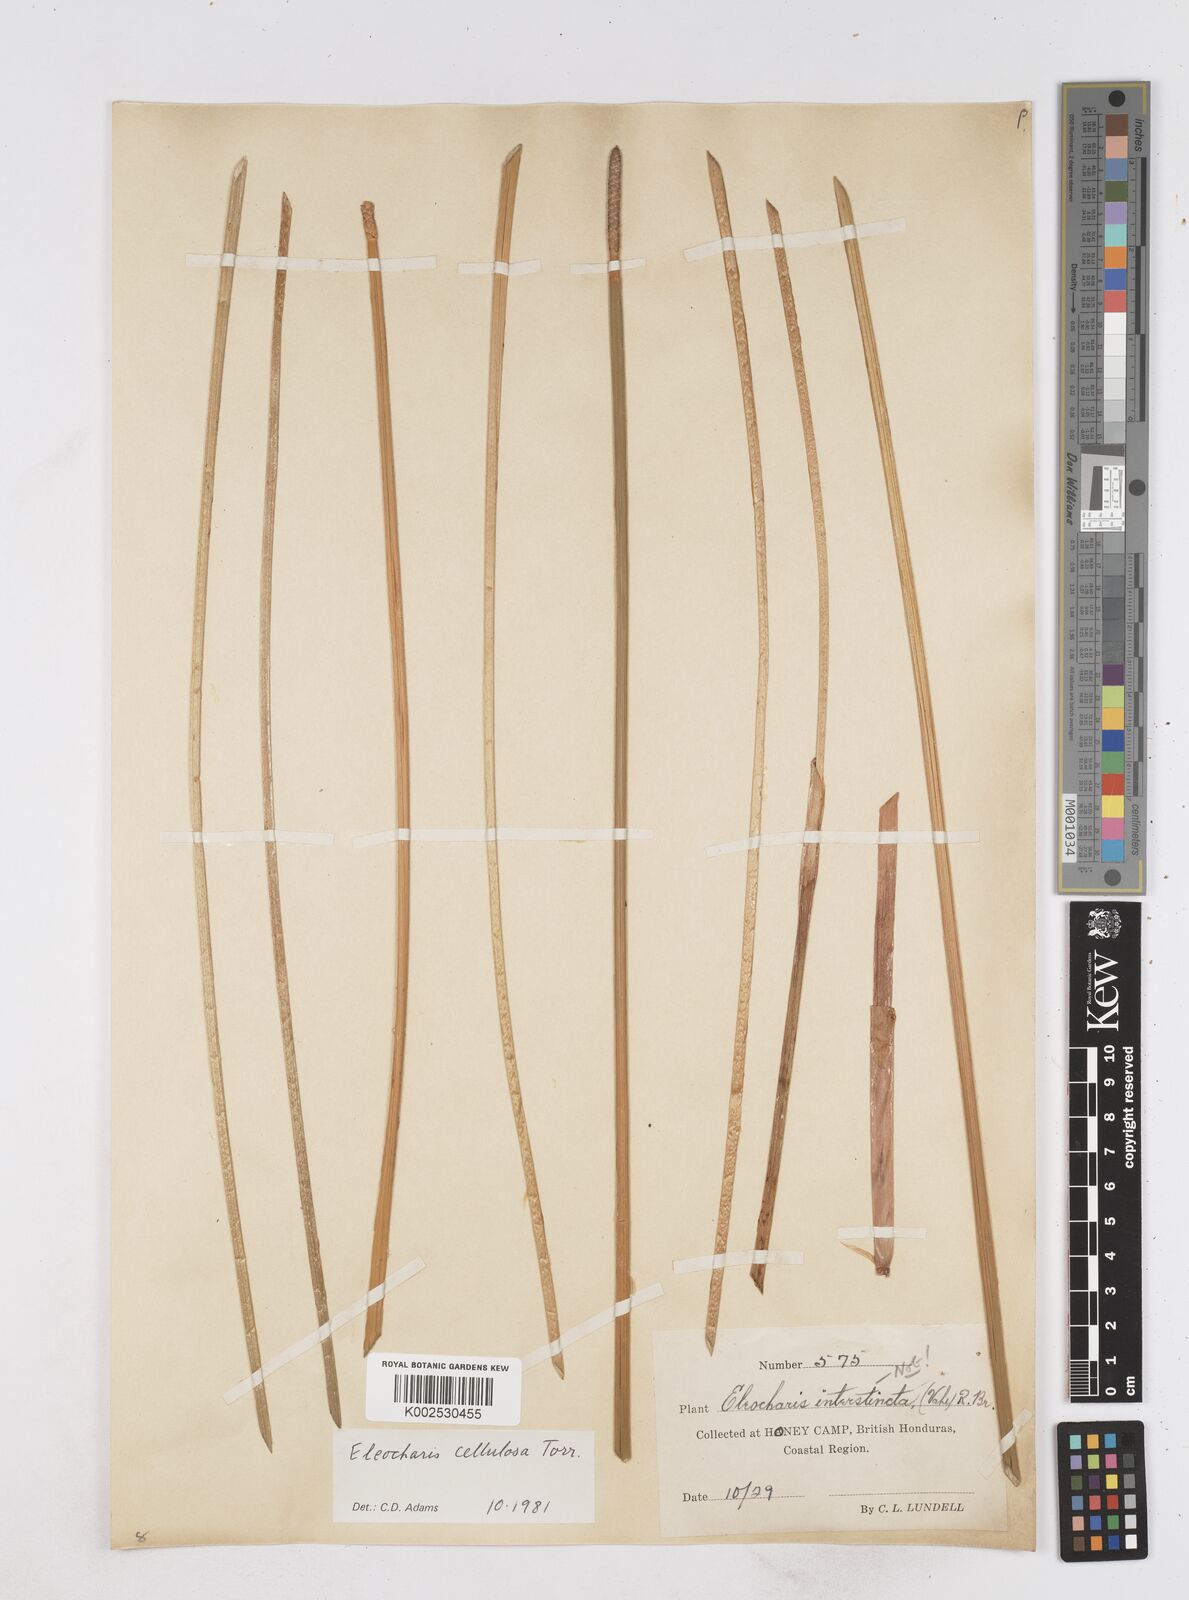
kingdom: Plantae
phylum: Tracheophyta
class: Liliopsida
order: Poales
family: Cyperaceae
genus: Eleocharis
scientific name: Eleocharis cellulosa
